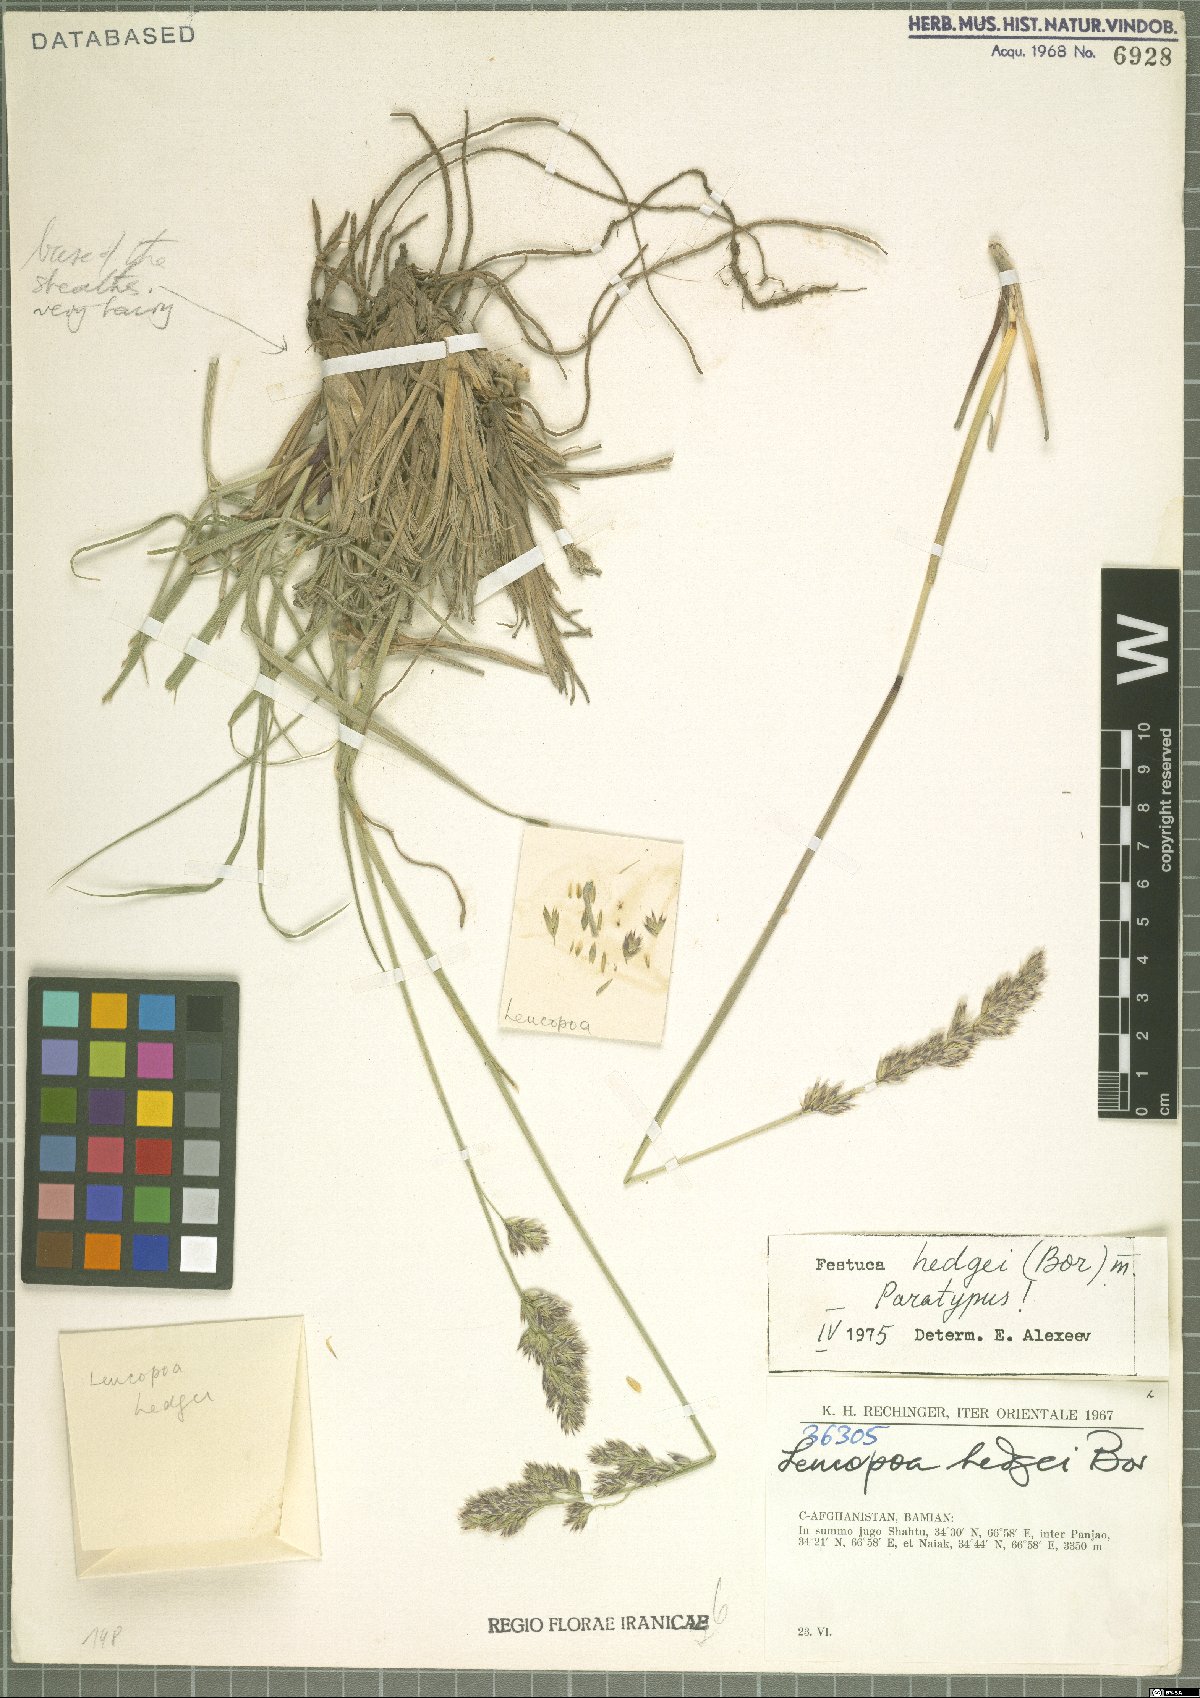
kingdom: Plantae
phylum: Tracheophyta
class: Liliopsida
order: Poales
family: Poaceae
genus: Festuca
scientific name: Festuca hedgei
